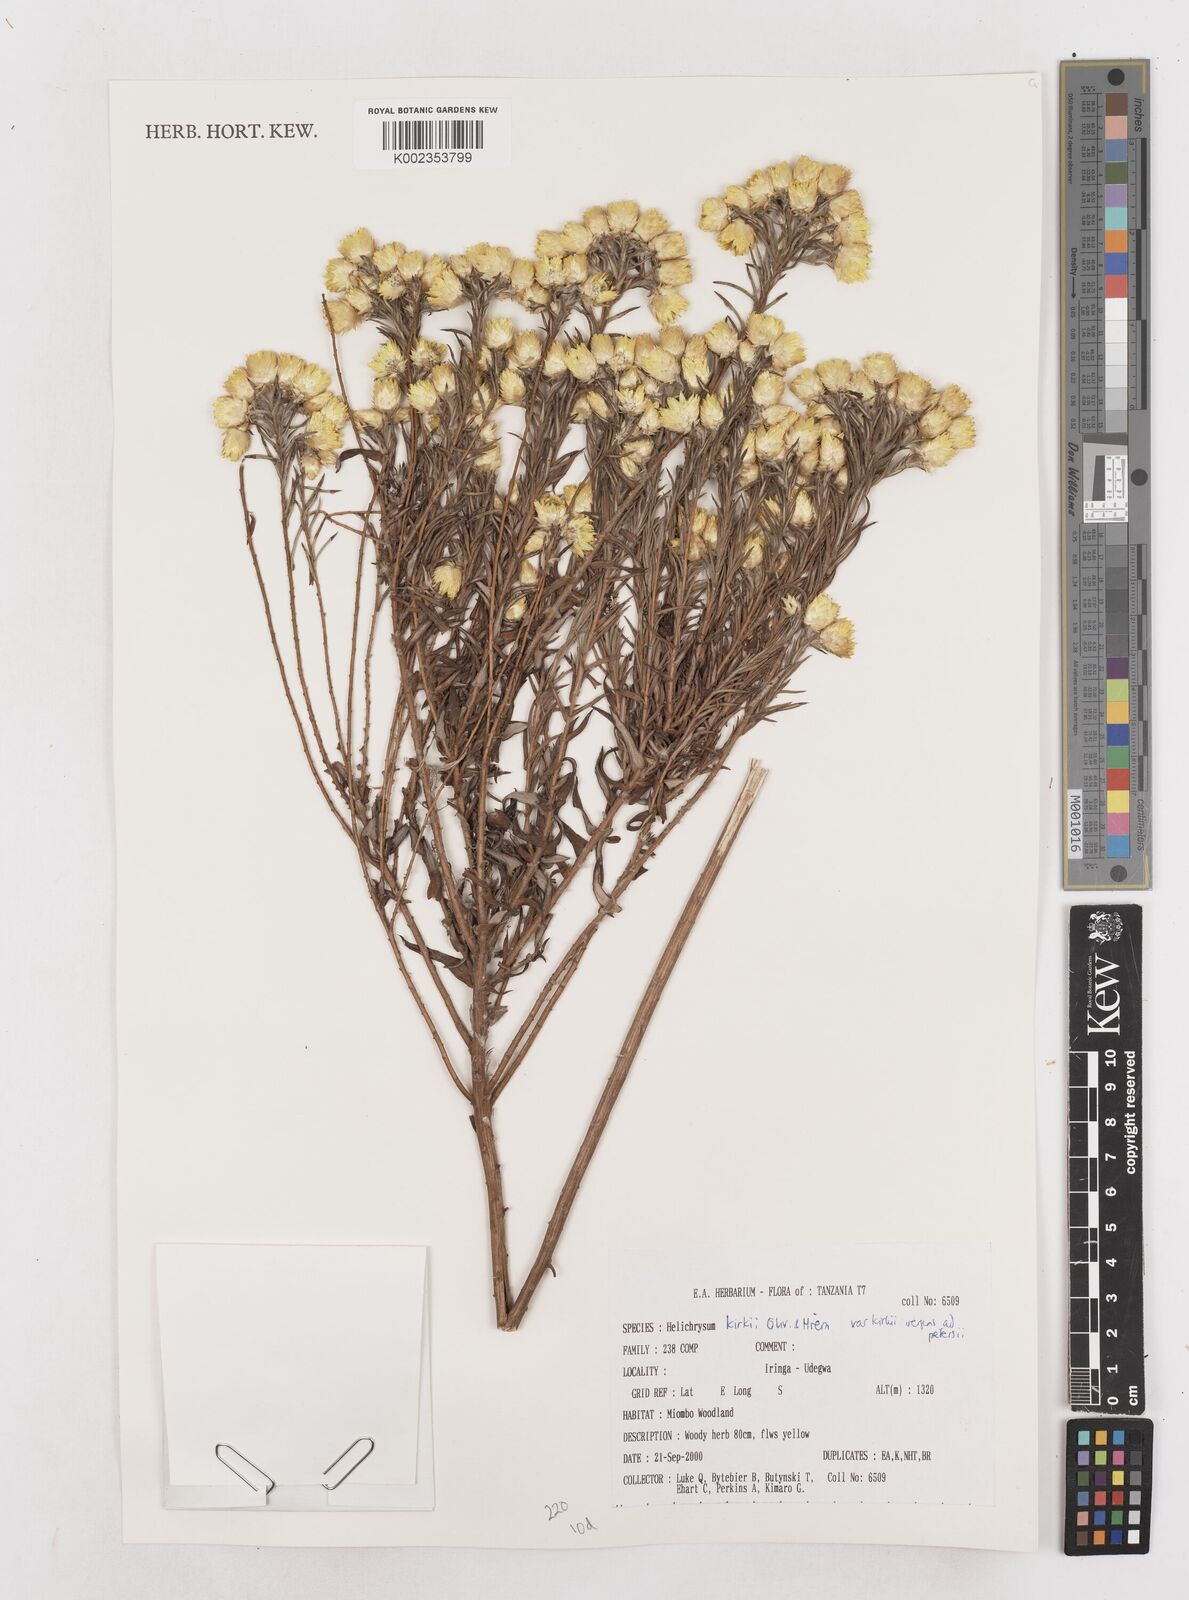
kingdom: Plantae
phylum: Tracheophyta
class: Magnoliopsida
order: Asterales
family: Asteraceae
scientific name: Asteraceae
